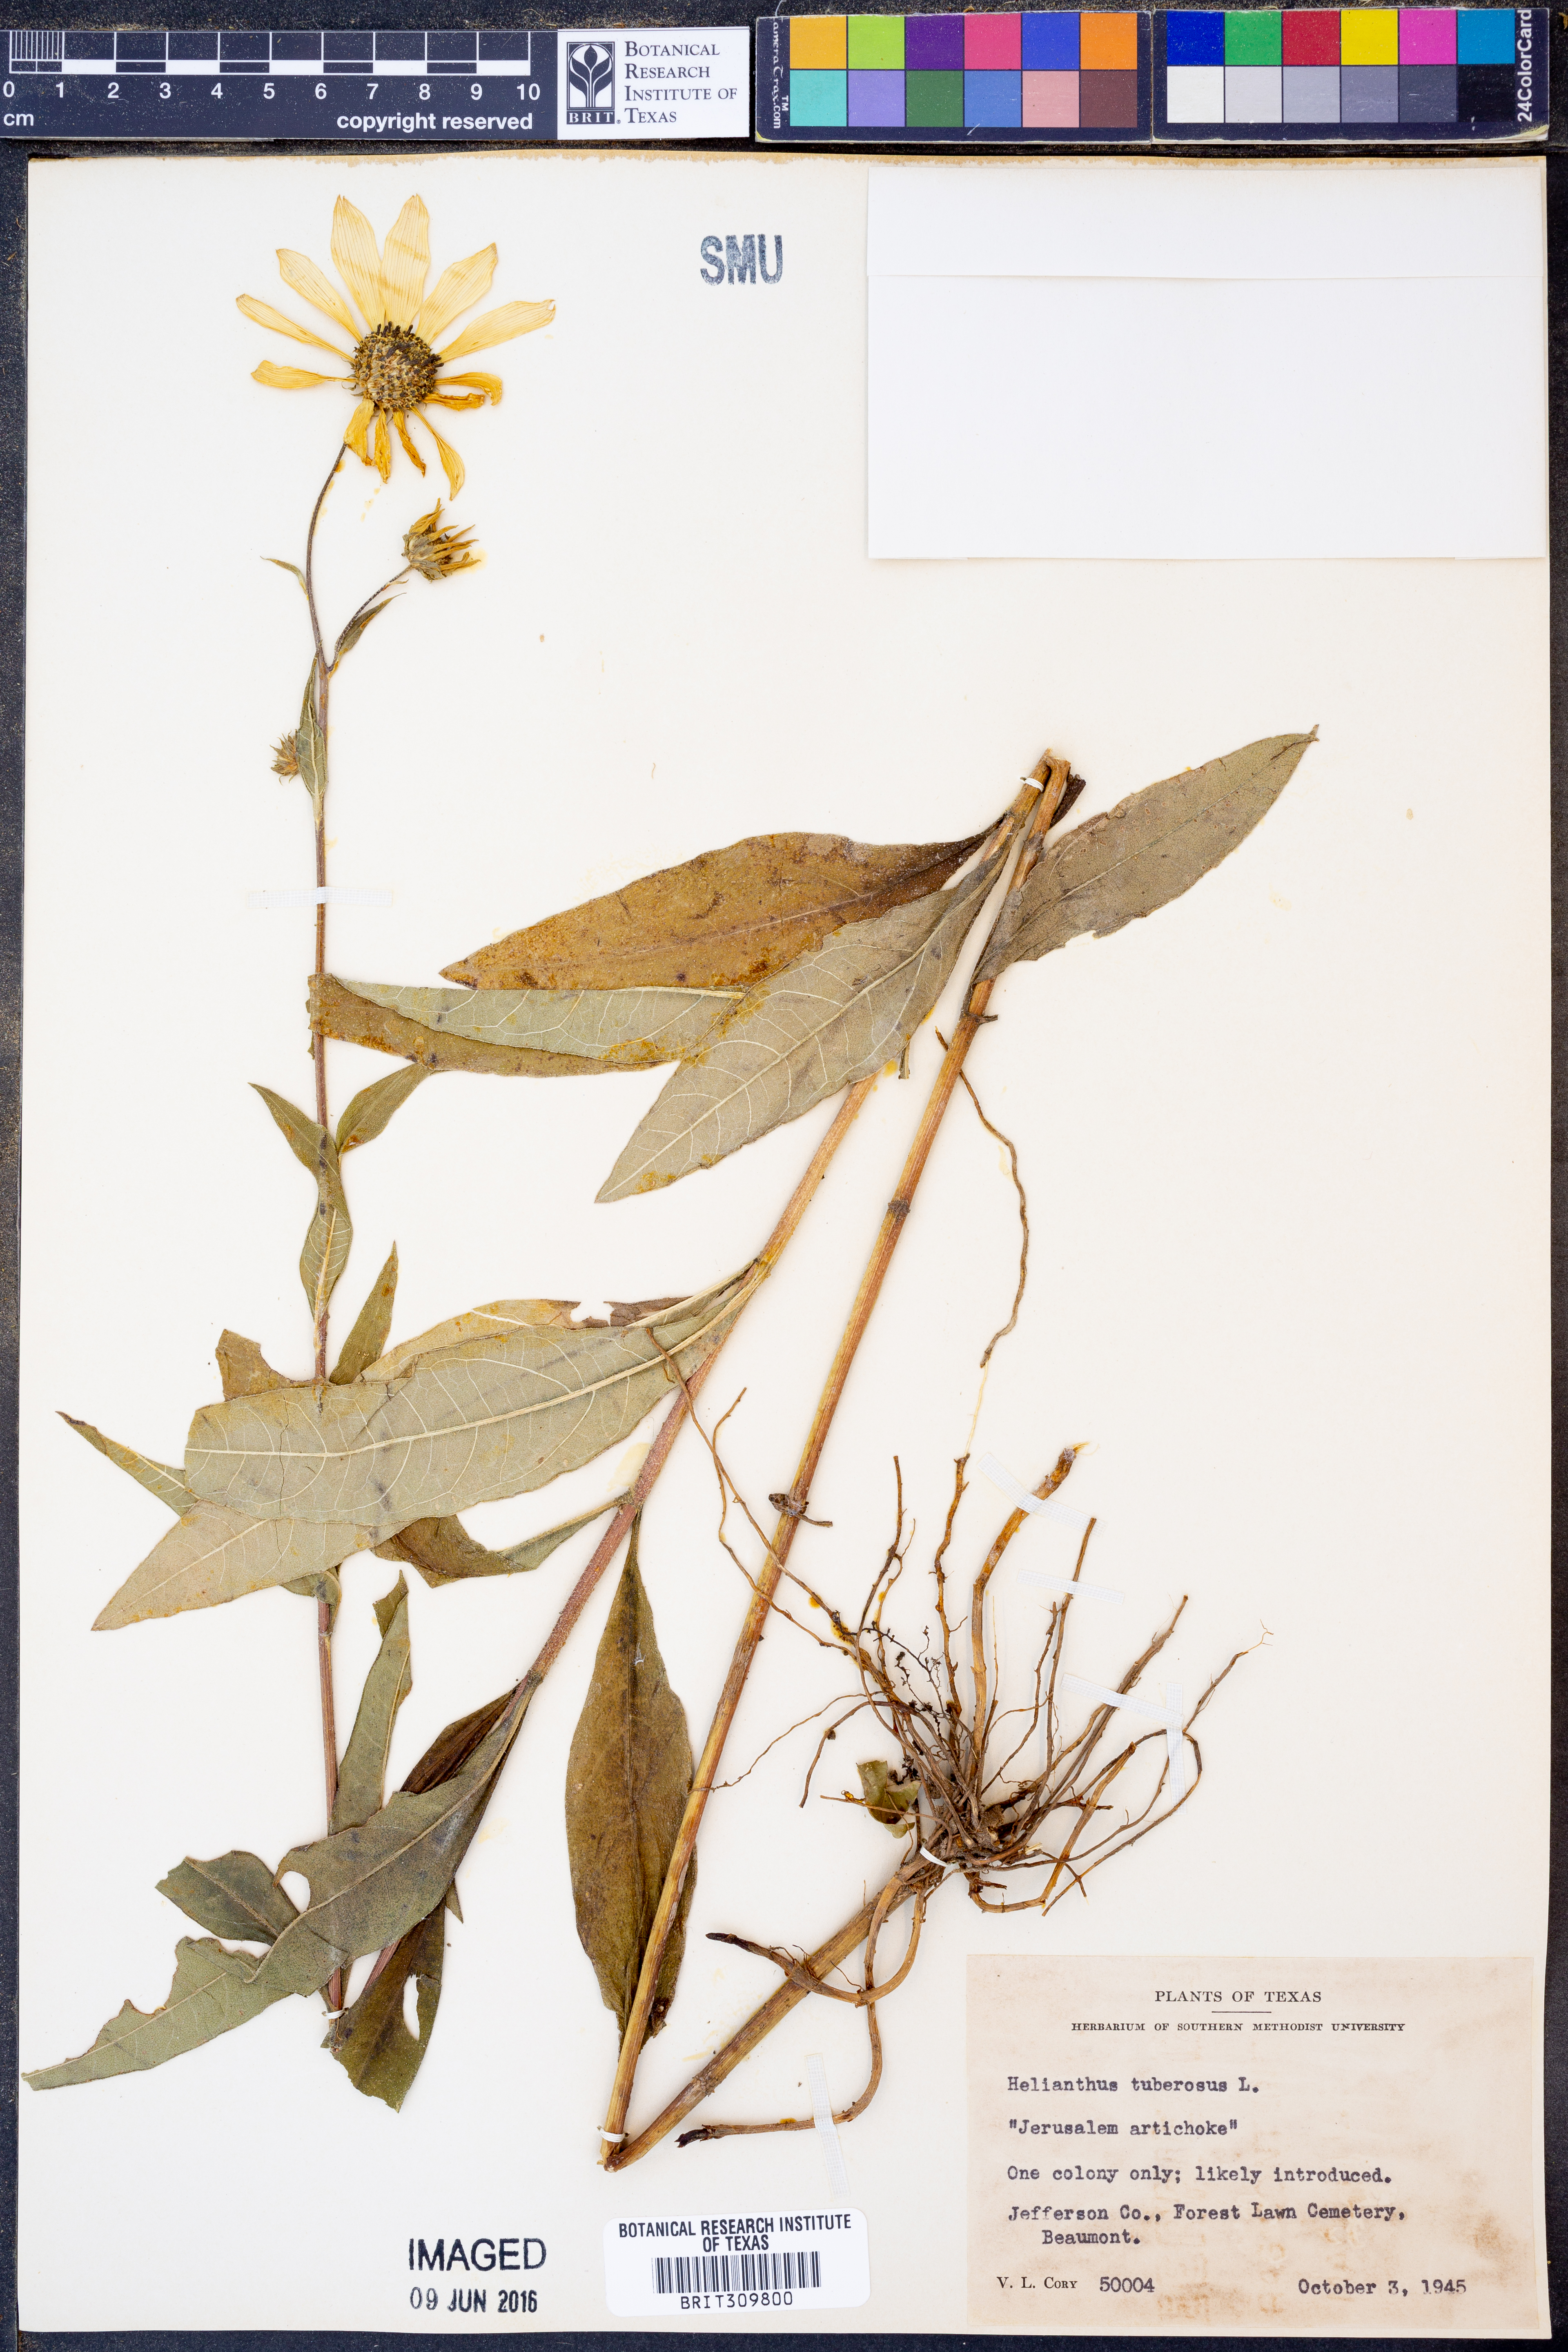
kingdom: Plantae
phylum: Tracheophyta
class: Magnoliopsida
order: Asterales
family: Asteraceae
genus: Helianthus
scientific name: Helianthus tuberosus
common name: Jerusalem artichoke
